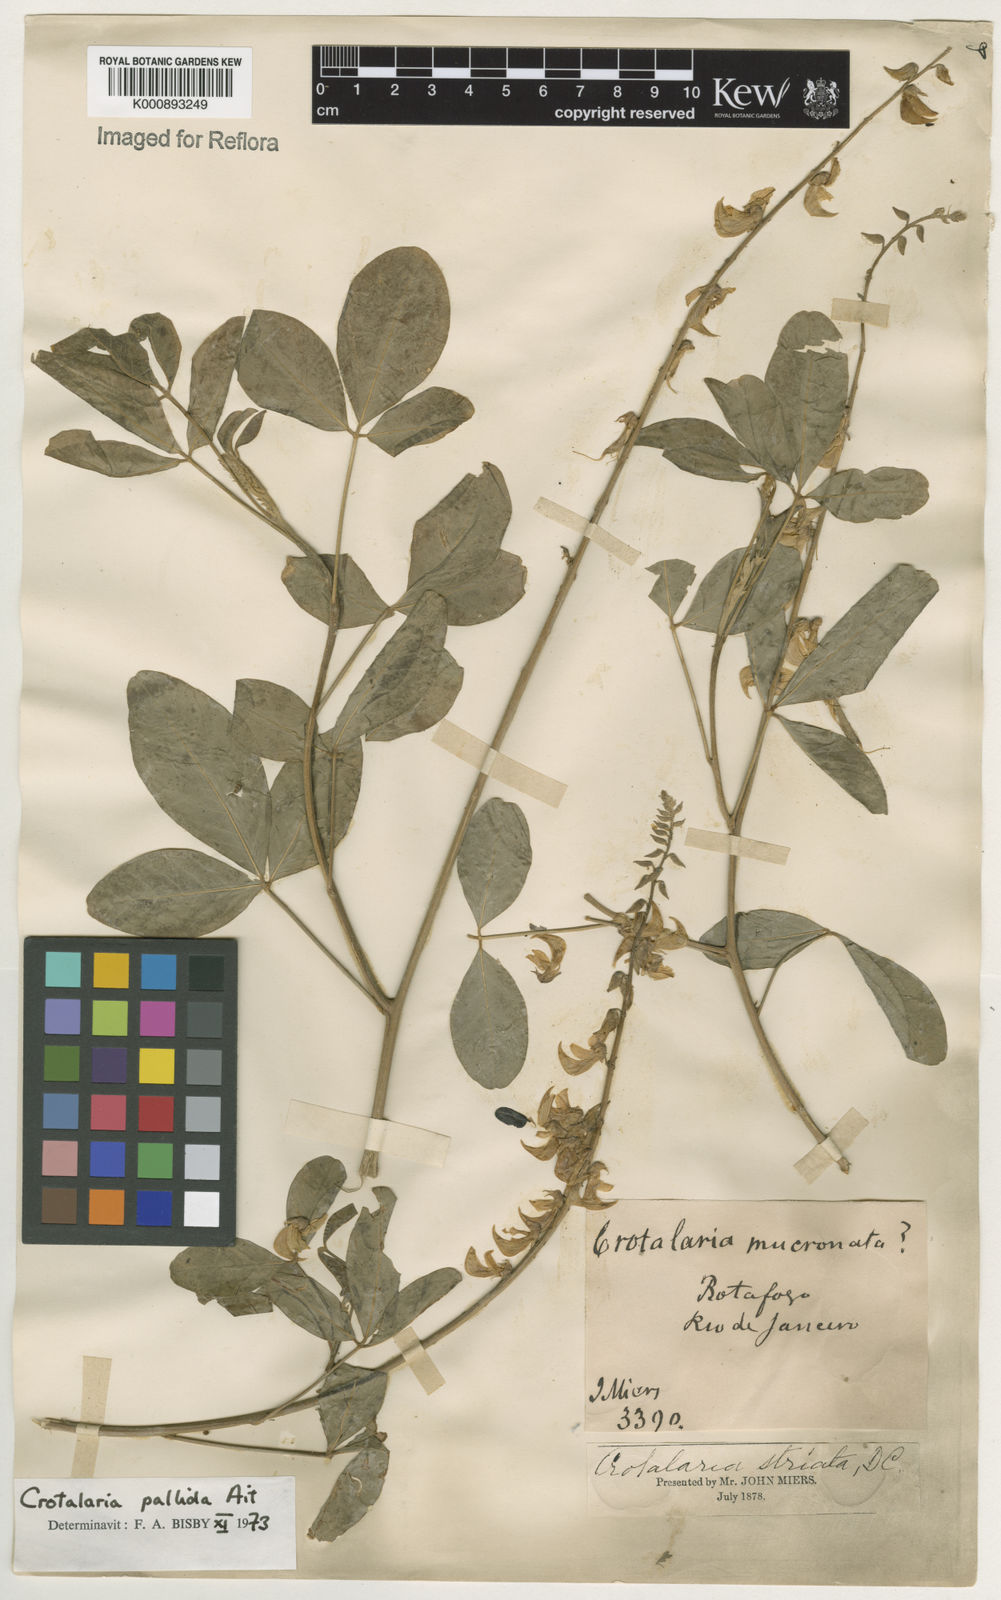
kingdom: Plantae
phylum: Tracheophyta
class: Magnoliopsida
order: Fabales
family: Fabaceae
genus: Crotalaria
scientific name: Crotalaria pallida
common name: Smooth rattlebox
